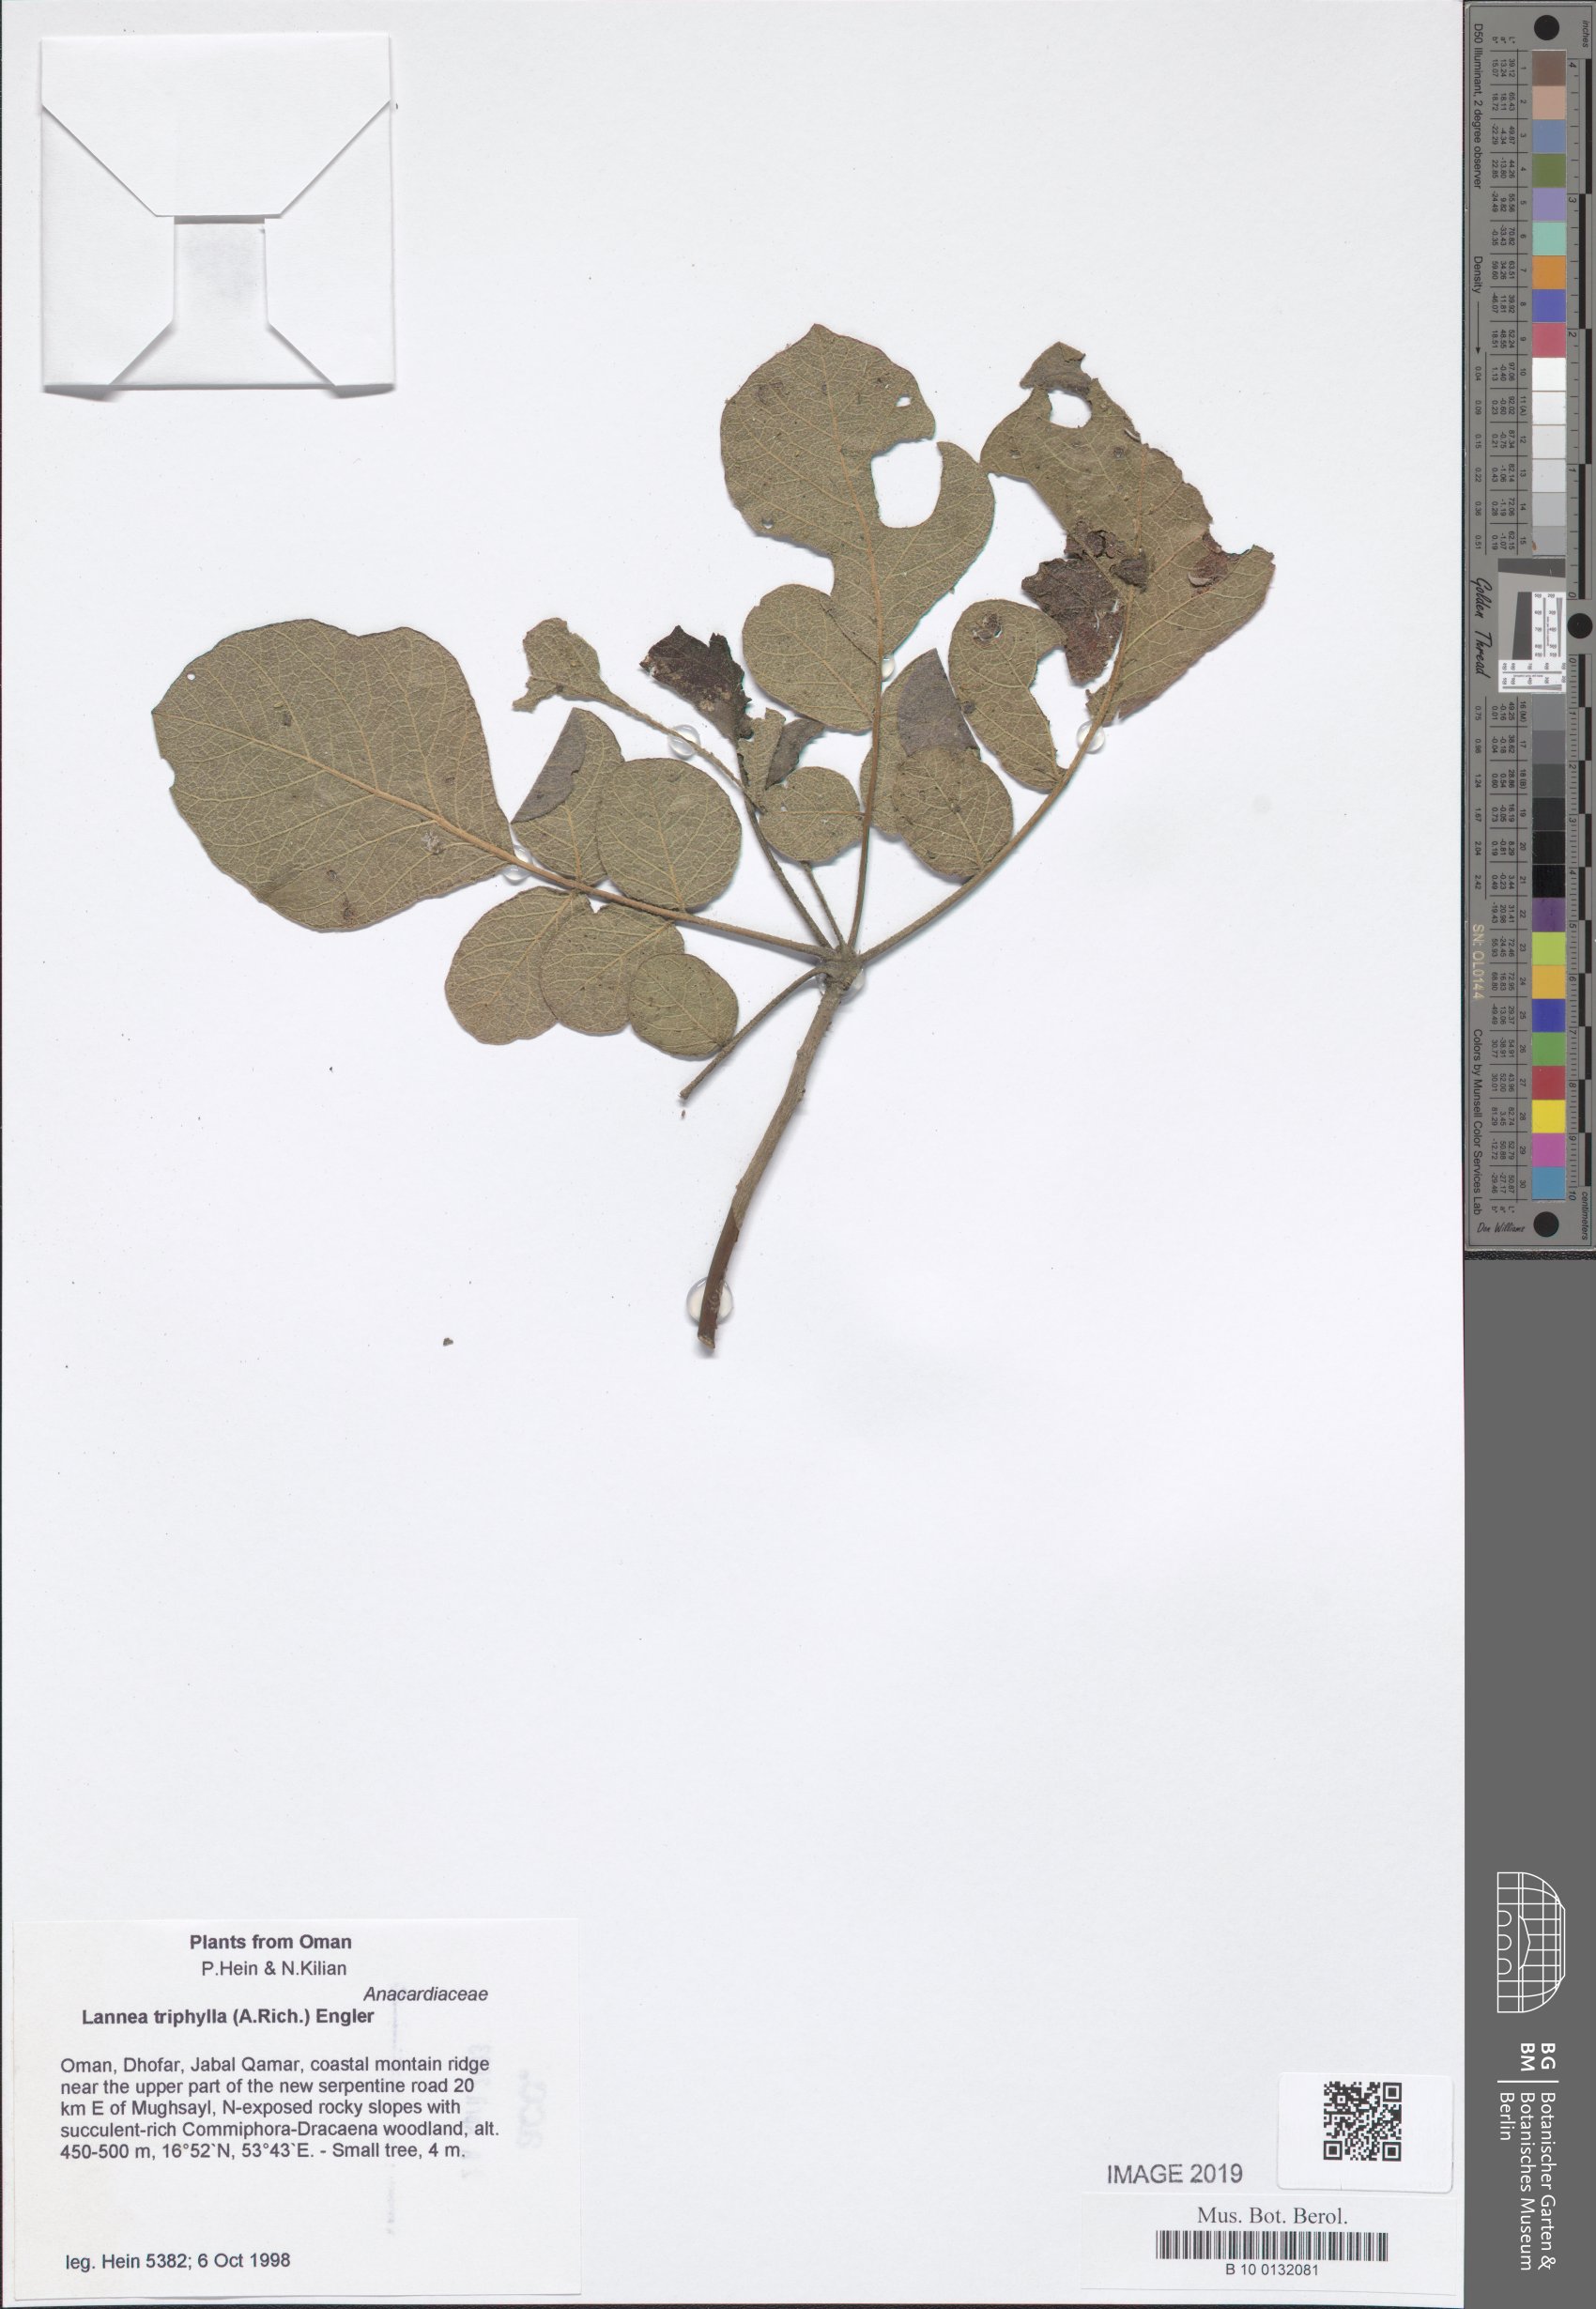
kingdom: Plantae
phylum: Tracheophyta
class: Magnoliopsida
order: Sapindales
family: Anacardiaceae
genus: Lannea
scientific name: Lannea triphylla
